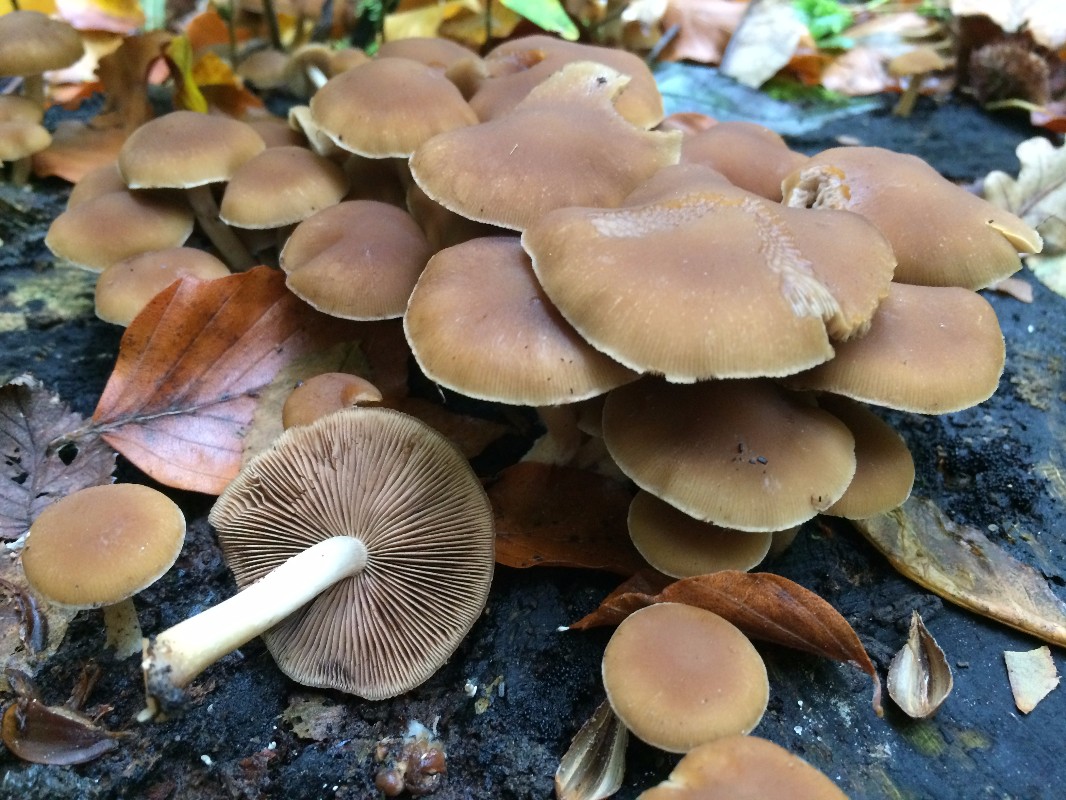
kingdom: Fungi
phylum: Basidiomycota
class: Agaricomycetes
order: Agaricales
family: Psathyrellaceae
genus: Psathyrella
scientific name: Psathyrella piluliformis
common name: lysstokket mørkhat
